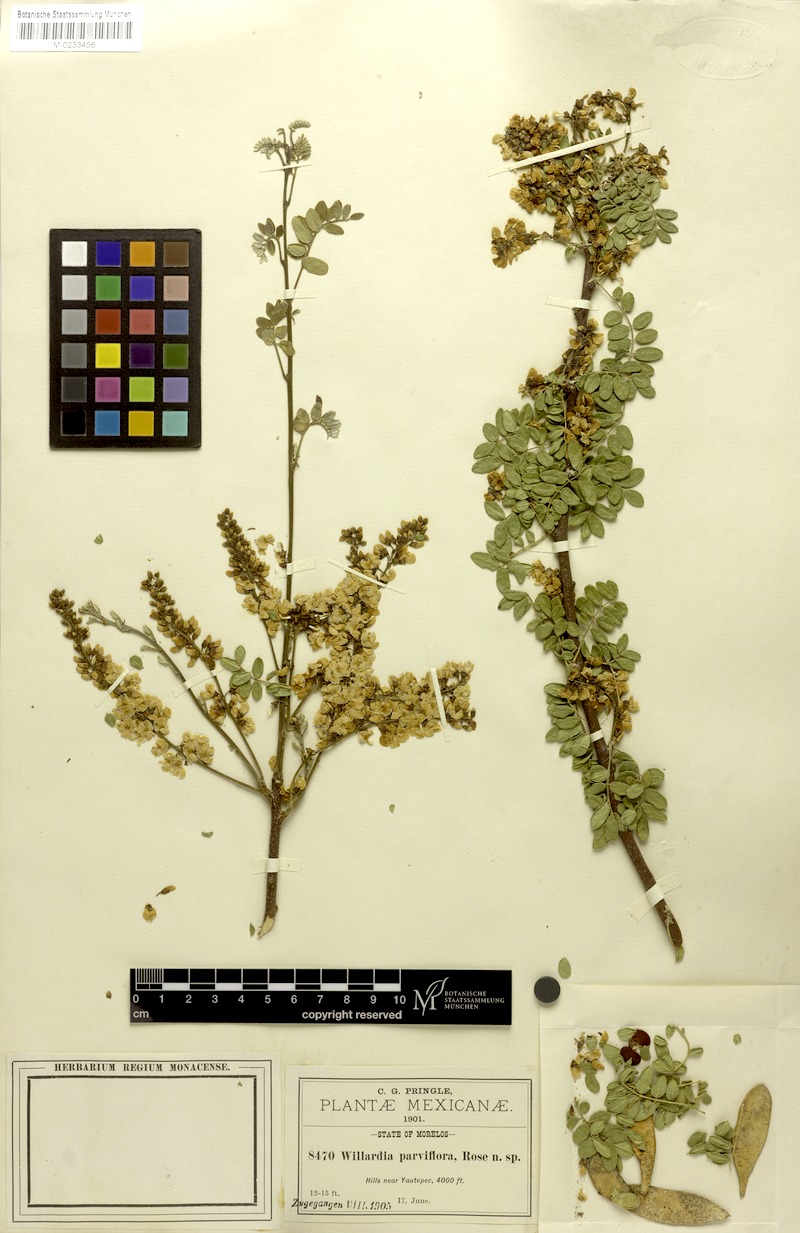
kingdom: Plantae
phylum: Tracheophyta
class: Magnoliopsida
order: Fabales
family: Fabaceae
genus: Lonchocarpus
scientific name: Lonchocarpus andrieuxii
